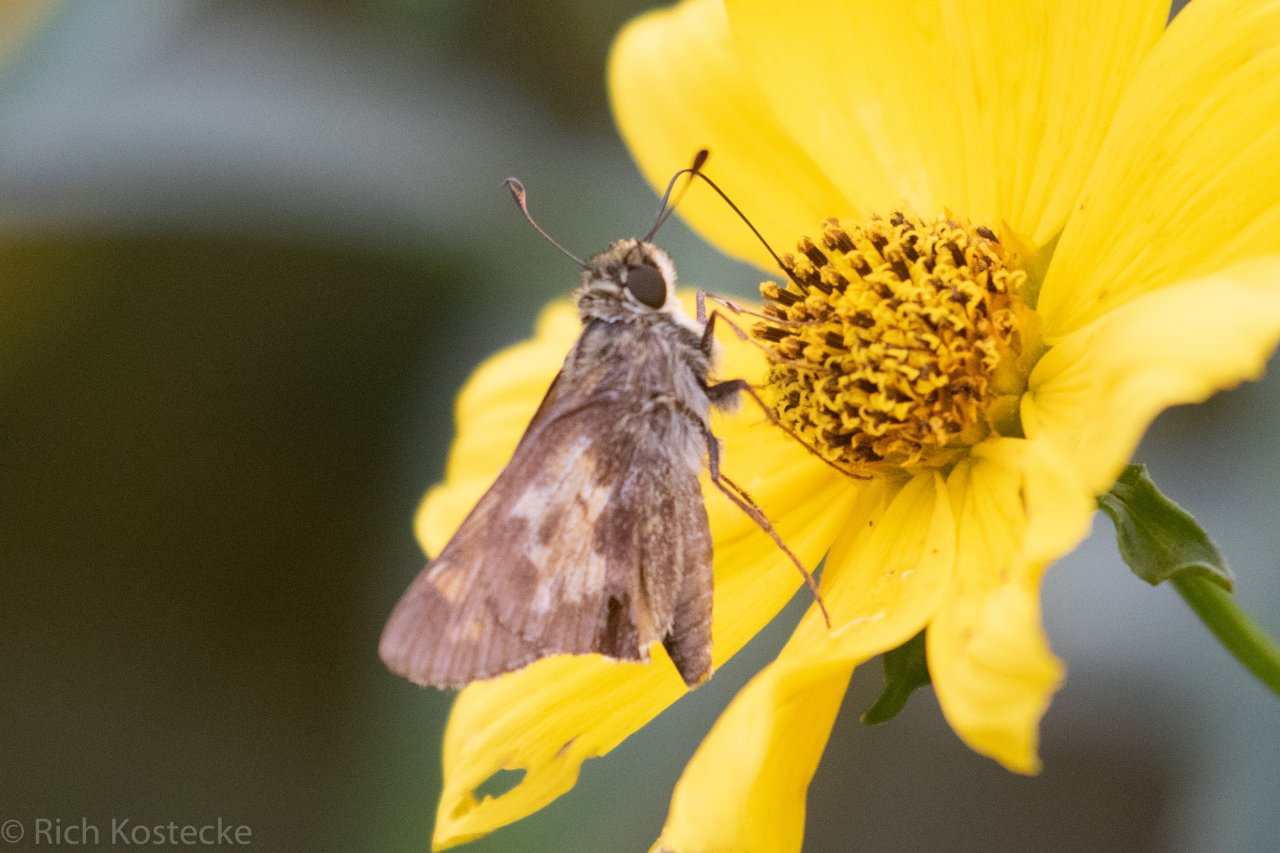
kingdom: Animalia
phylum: Arthropoda
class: Insecta
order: Lepidoptera
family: Hesperiidae
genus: Atalopedes
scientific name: Atalopedes campestris
